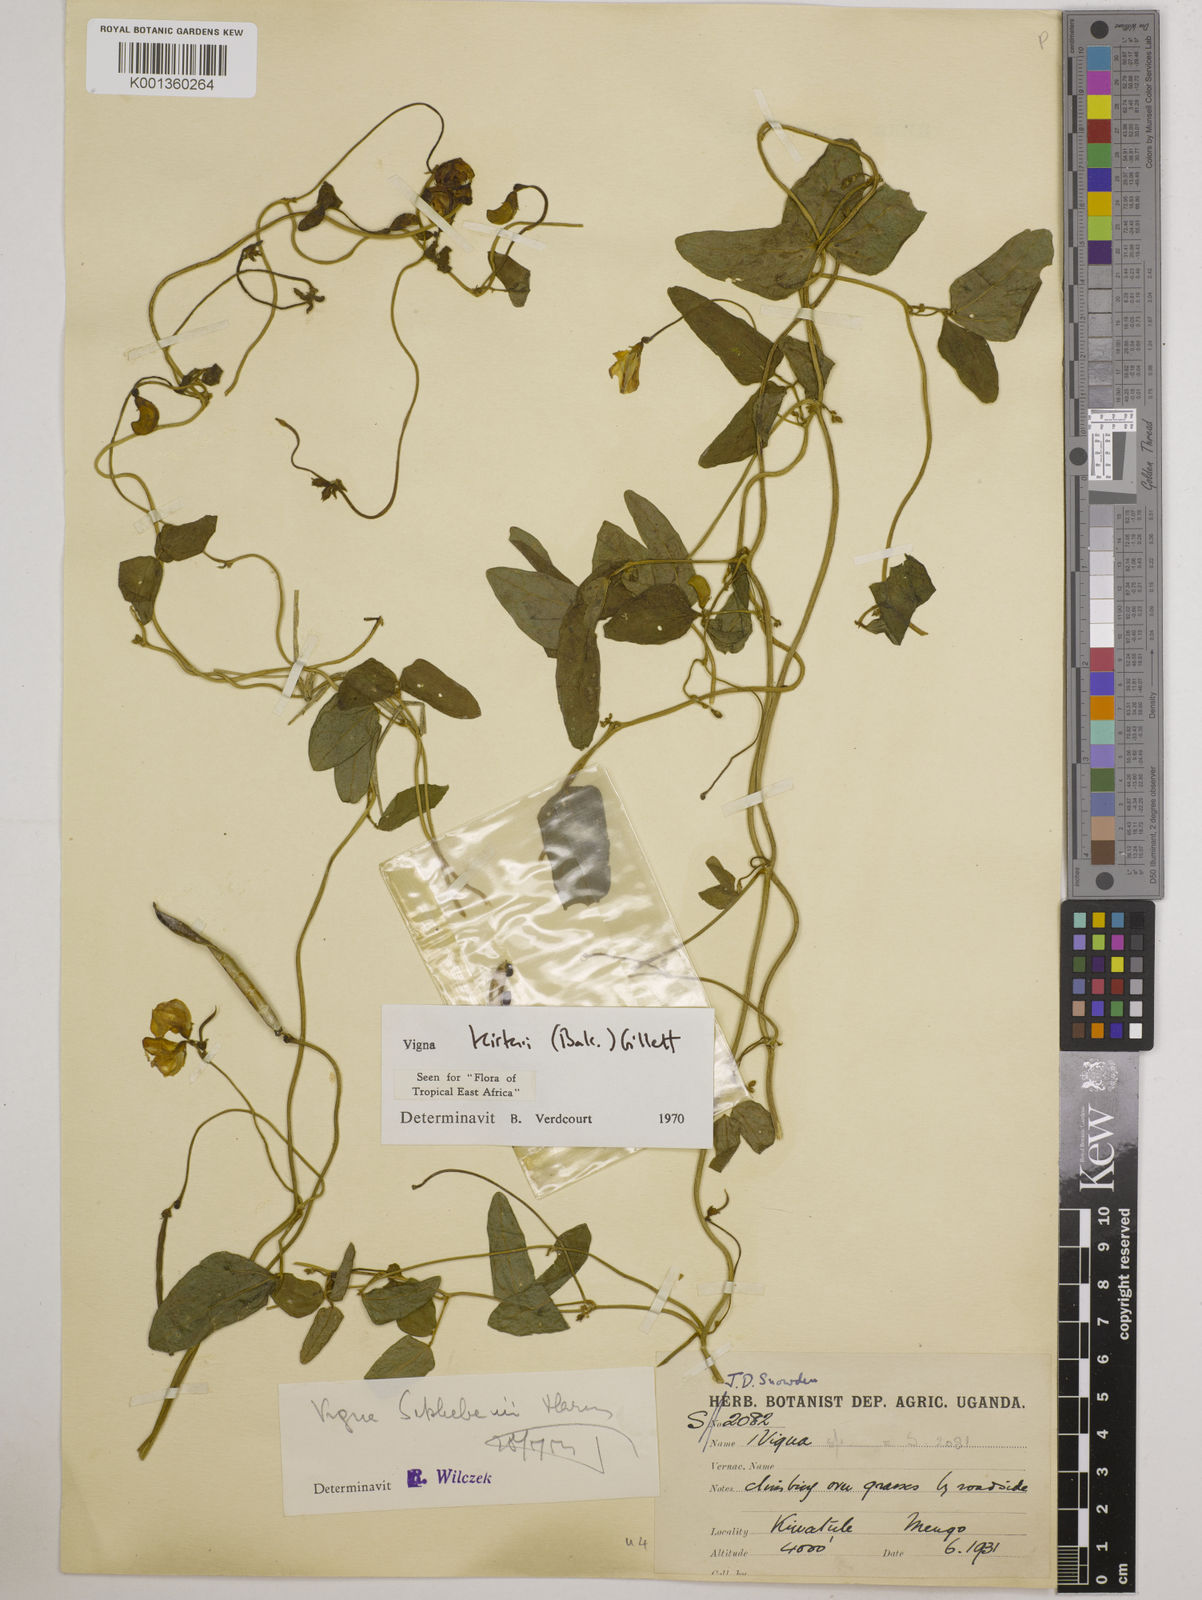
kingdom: Plantae
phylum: Tracheophyta
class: Magnoliopsida
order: Fabales
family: Fabaceae
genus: Vigna
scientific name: Vigna kirkii
